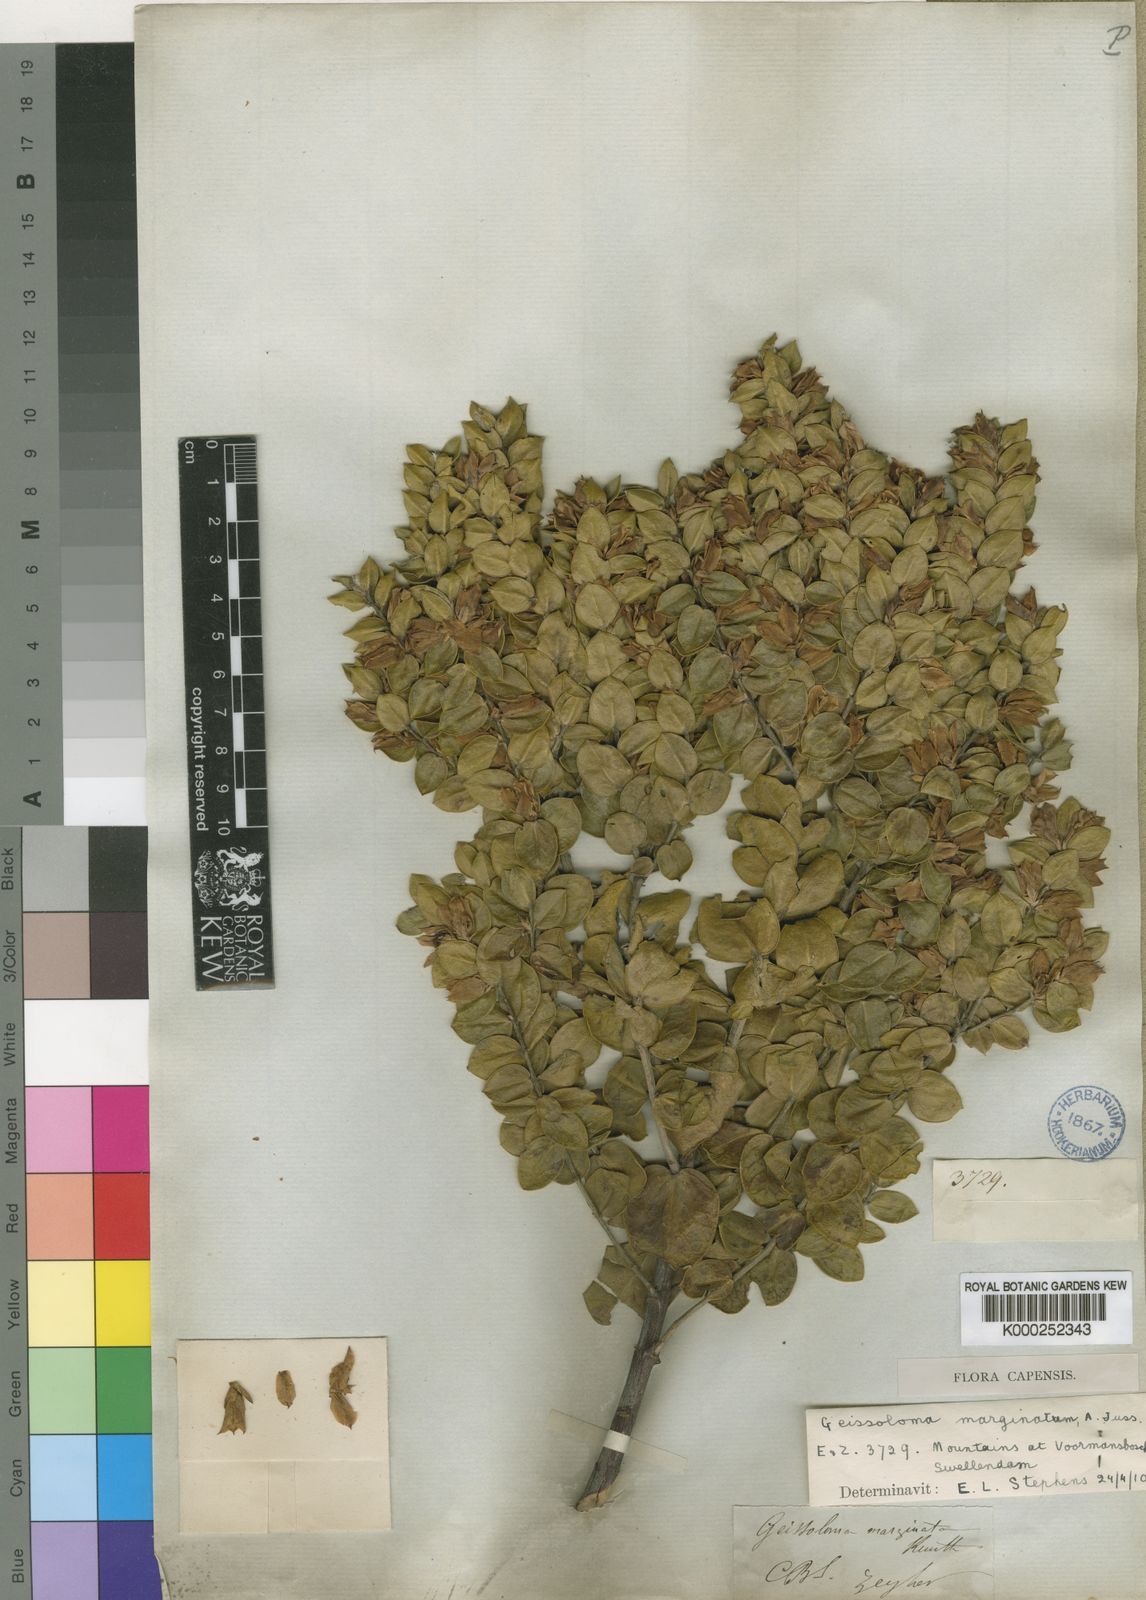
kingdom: Plantae
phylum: Tracheophyta
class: Magnoliopsida
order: Crossosomatales
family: Geissolomataceae
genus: Geissoloma
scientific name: Geissoloma
